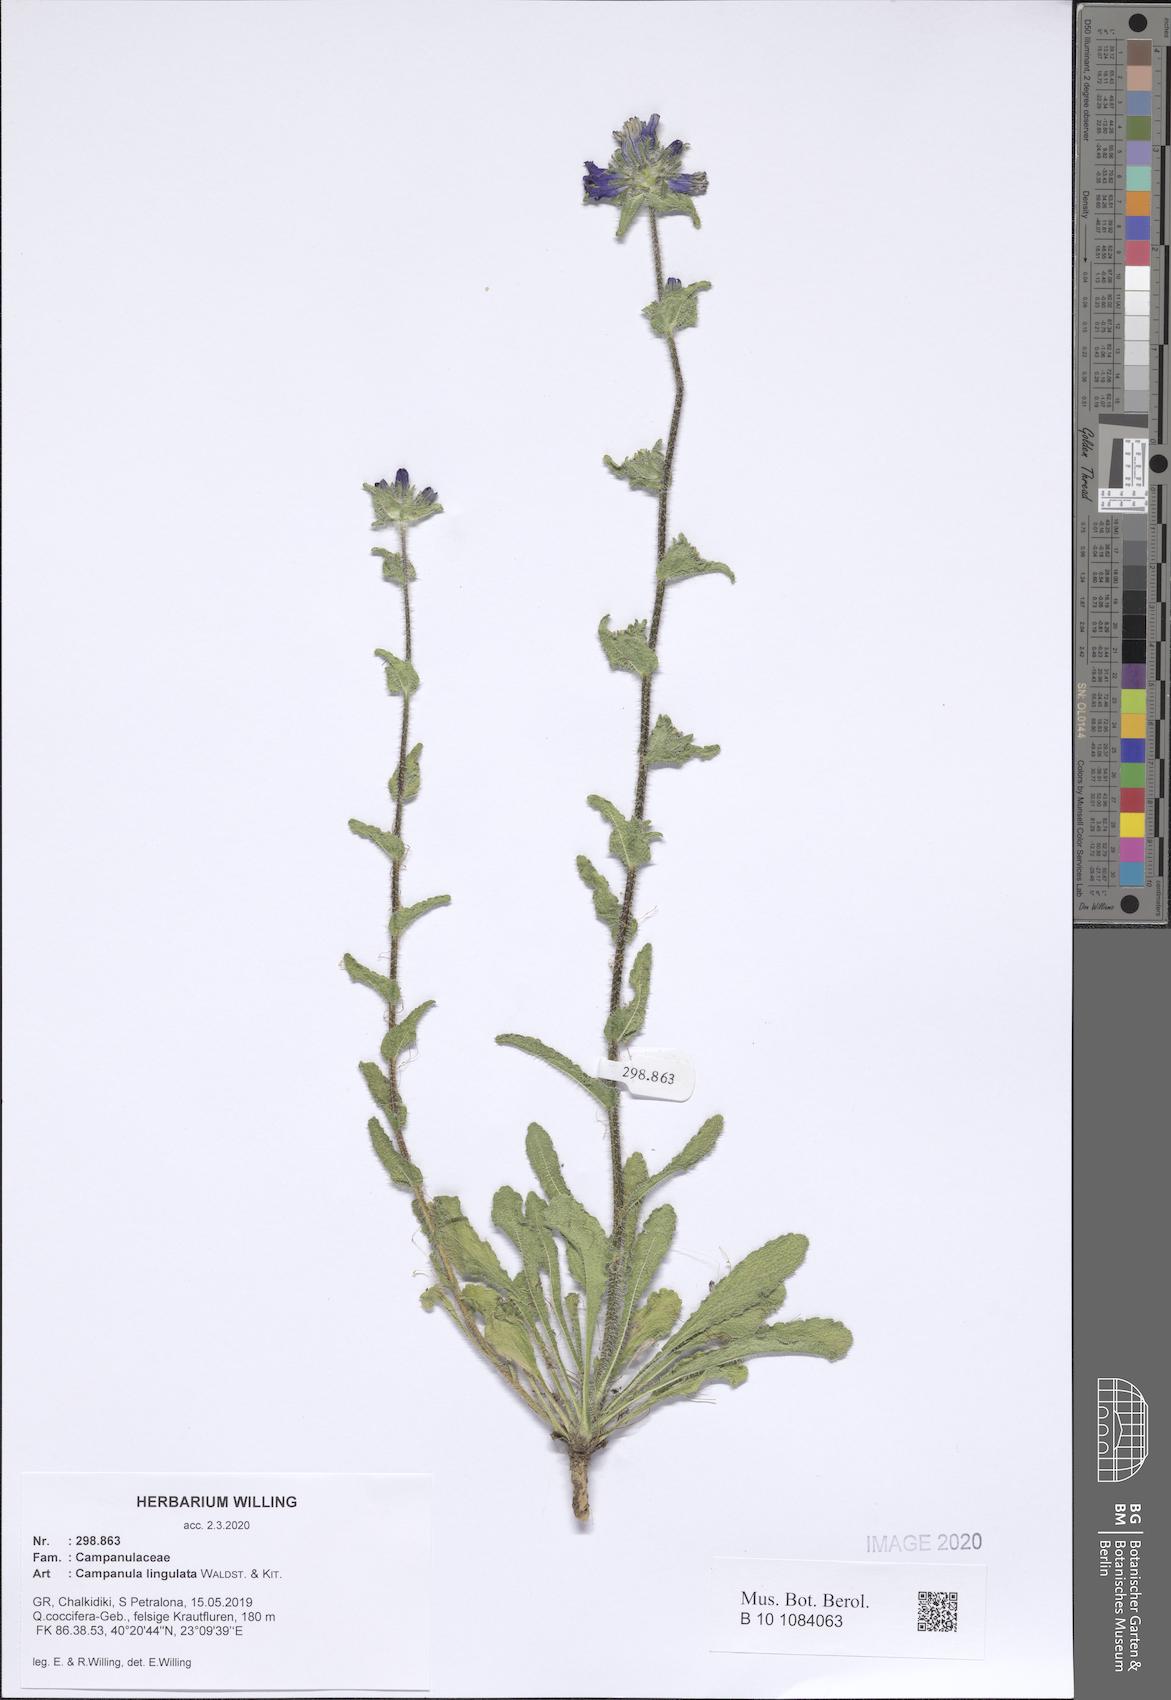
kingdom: Plantae
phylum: Tracheophyta
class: Magnoliopsida
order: Asterales
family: Campanulaceae
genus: Campanula
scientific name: Campanula lingulata
